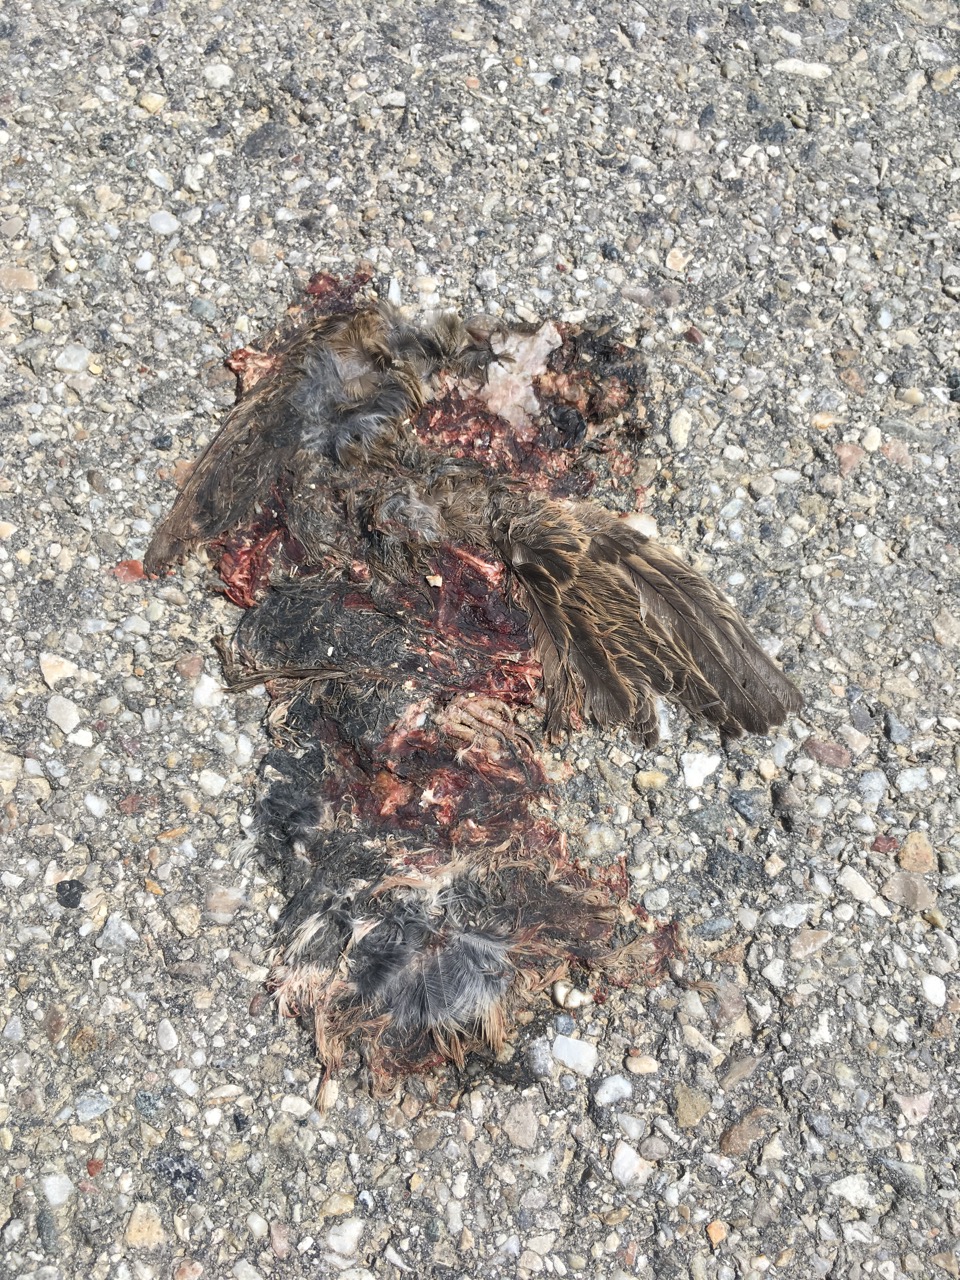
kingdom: Animalia
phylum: Chordata
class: Aves
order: Passeriformes
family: Passeridae
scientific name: Passeridae
